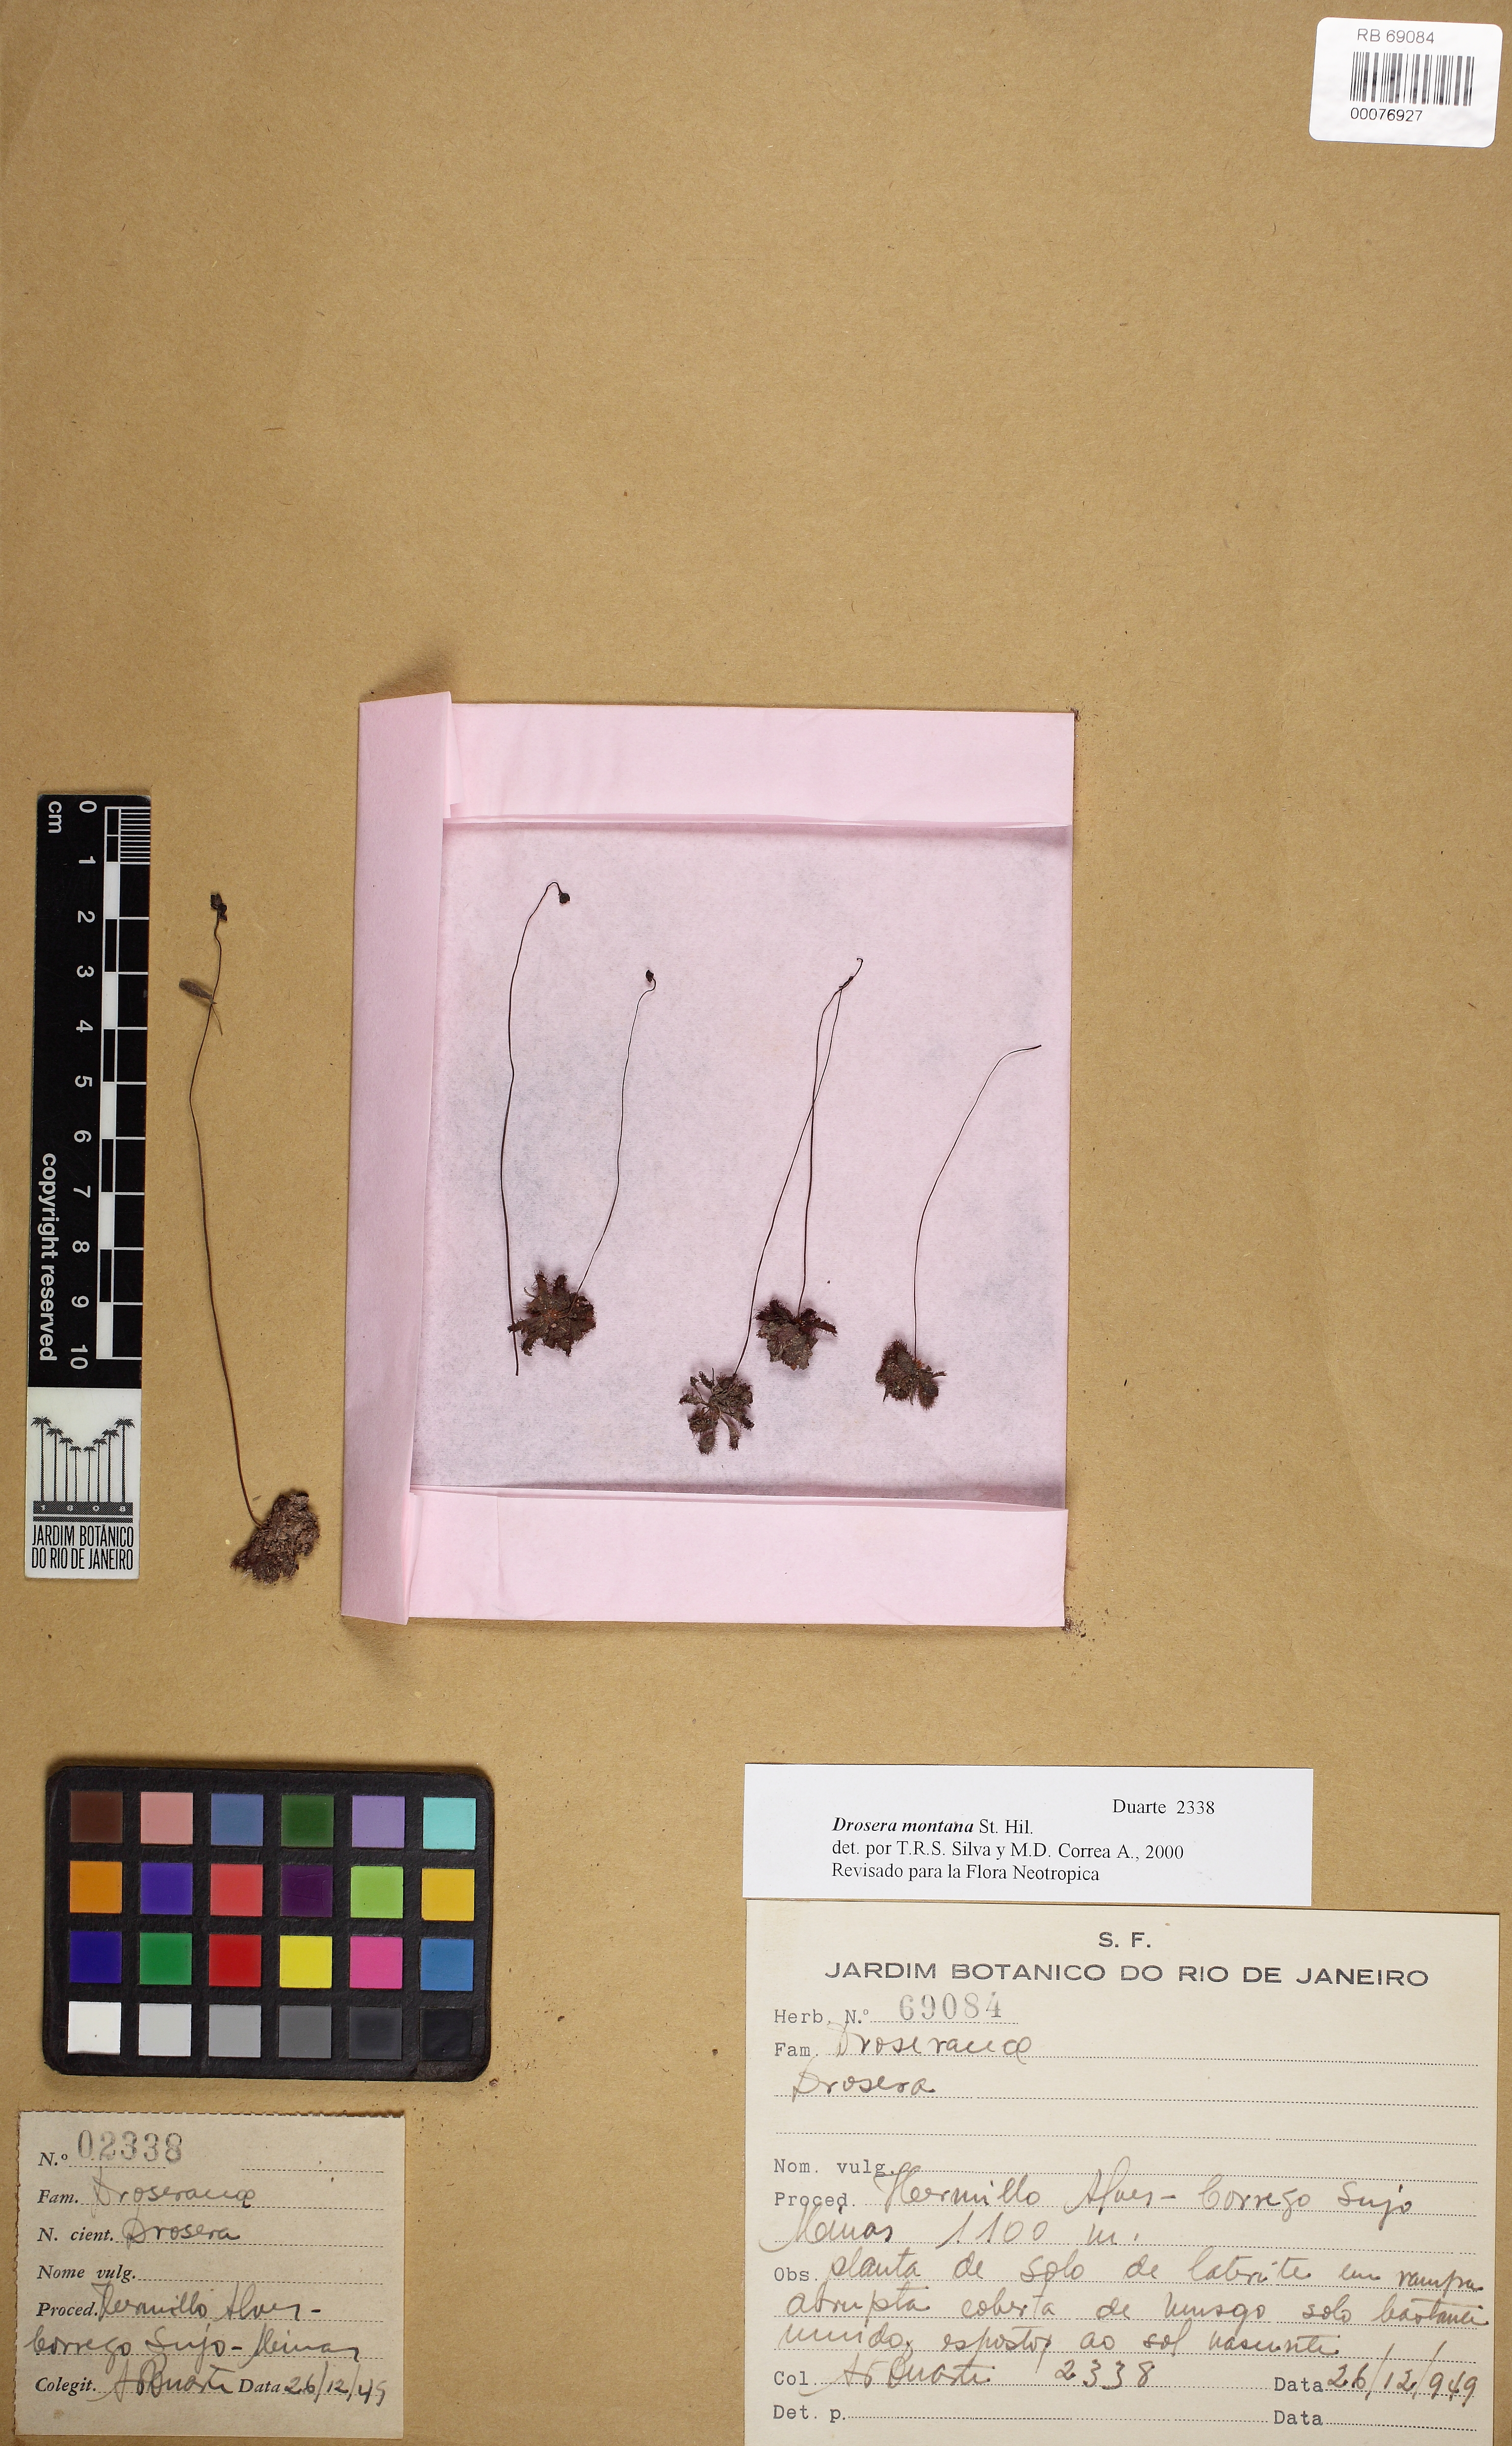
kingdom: Plantae
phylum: Tracheophyta
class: Magnoliopsida
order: Caryophyllales
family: Droseraceae
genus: Drosera
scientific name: Drosera montana
